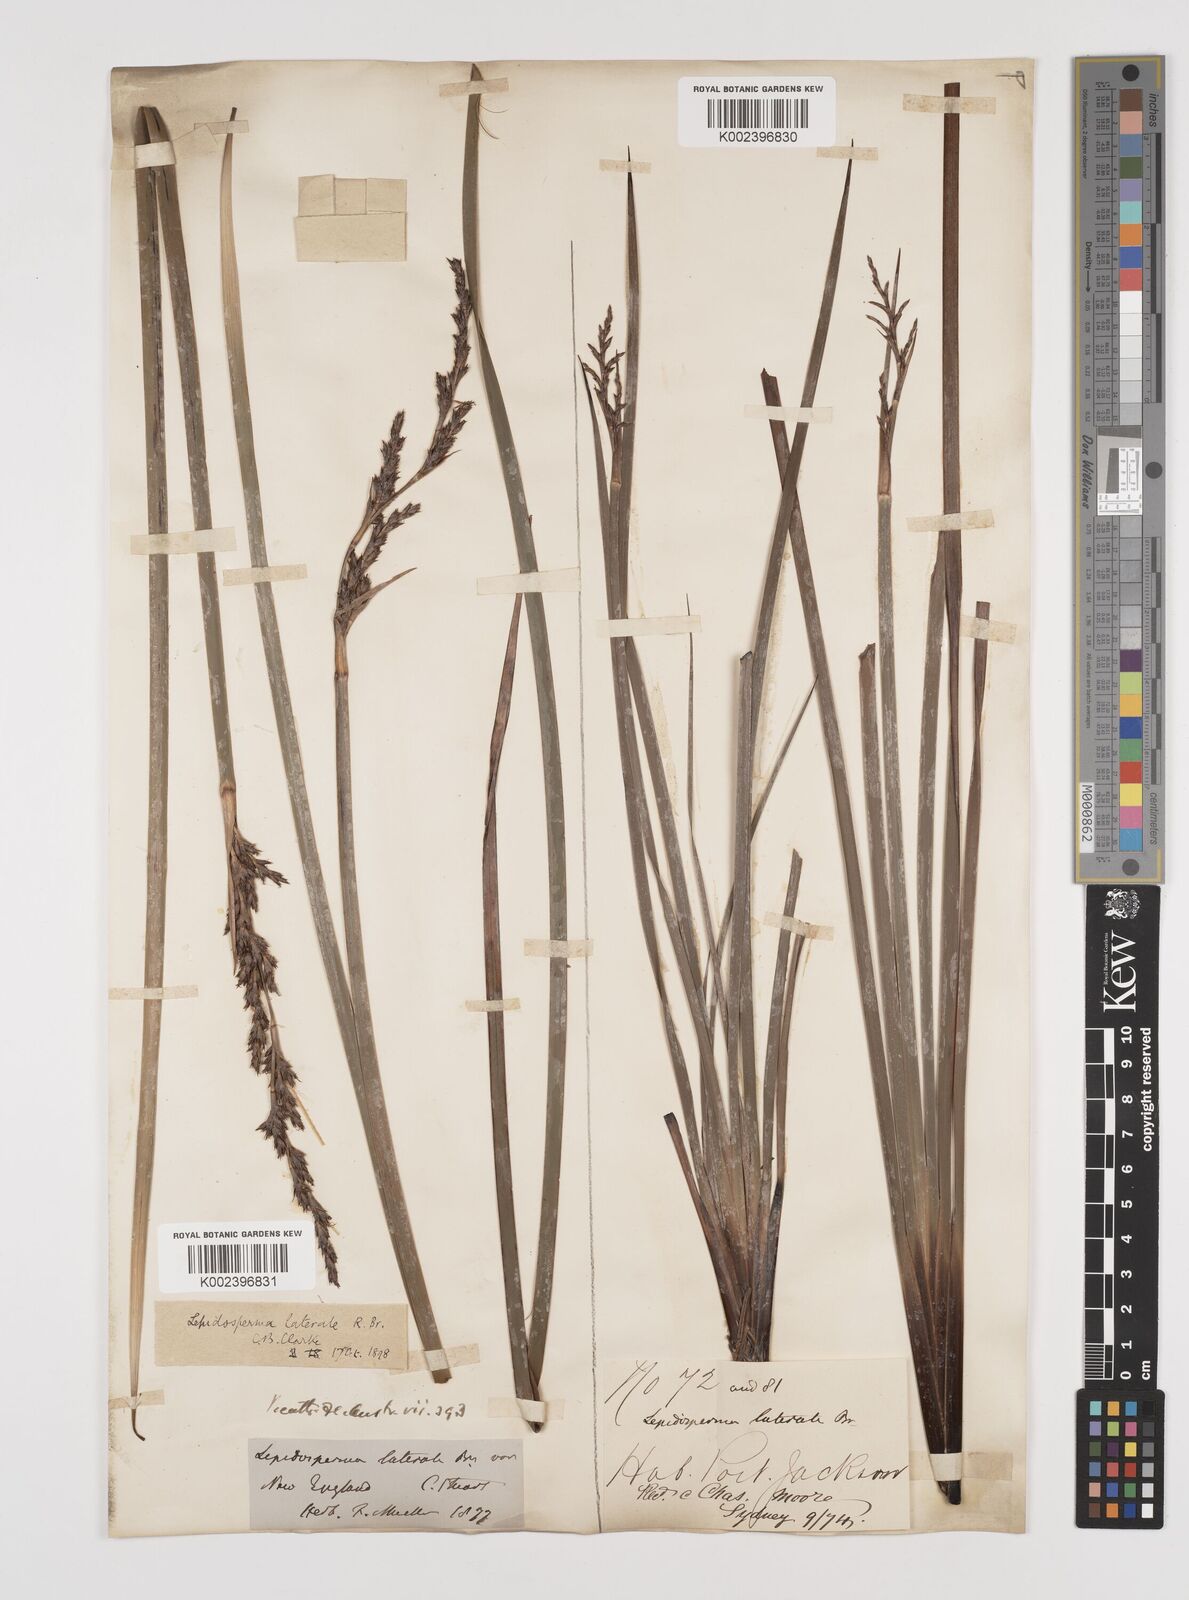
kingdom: Plantae
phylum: Tracheophyta
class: Liliopsida
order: Poales
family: Cyperaceae
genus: Lepidosperma
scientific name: Lepidosperma laterale
